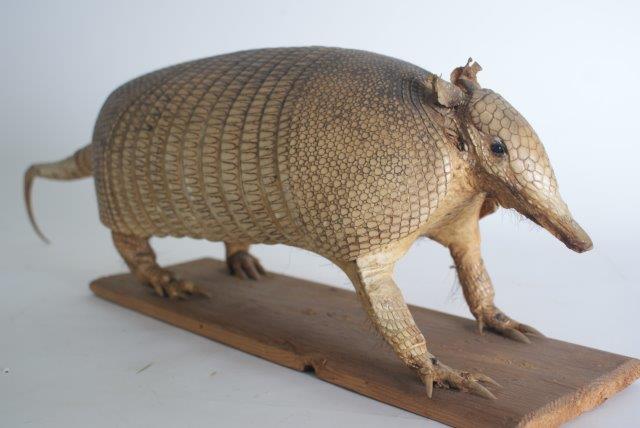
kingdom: Animalia
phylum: Chordata
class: Mammalia
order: Cingulata
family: Dasypodidae
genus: Dasypus
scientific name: Dasypus novemcinctus
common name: Nine-banded Armadillo
